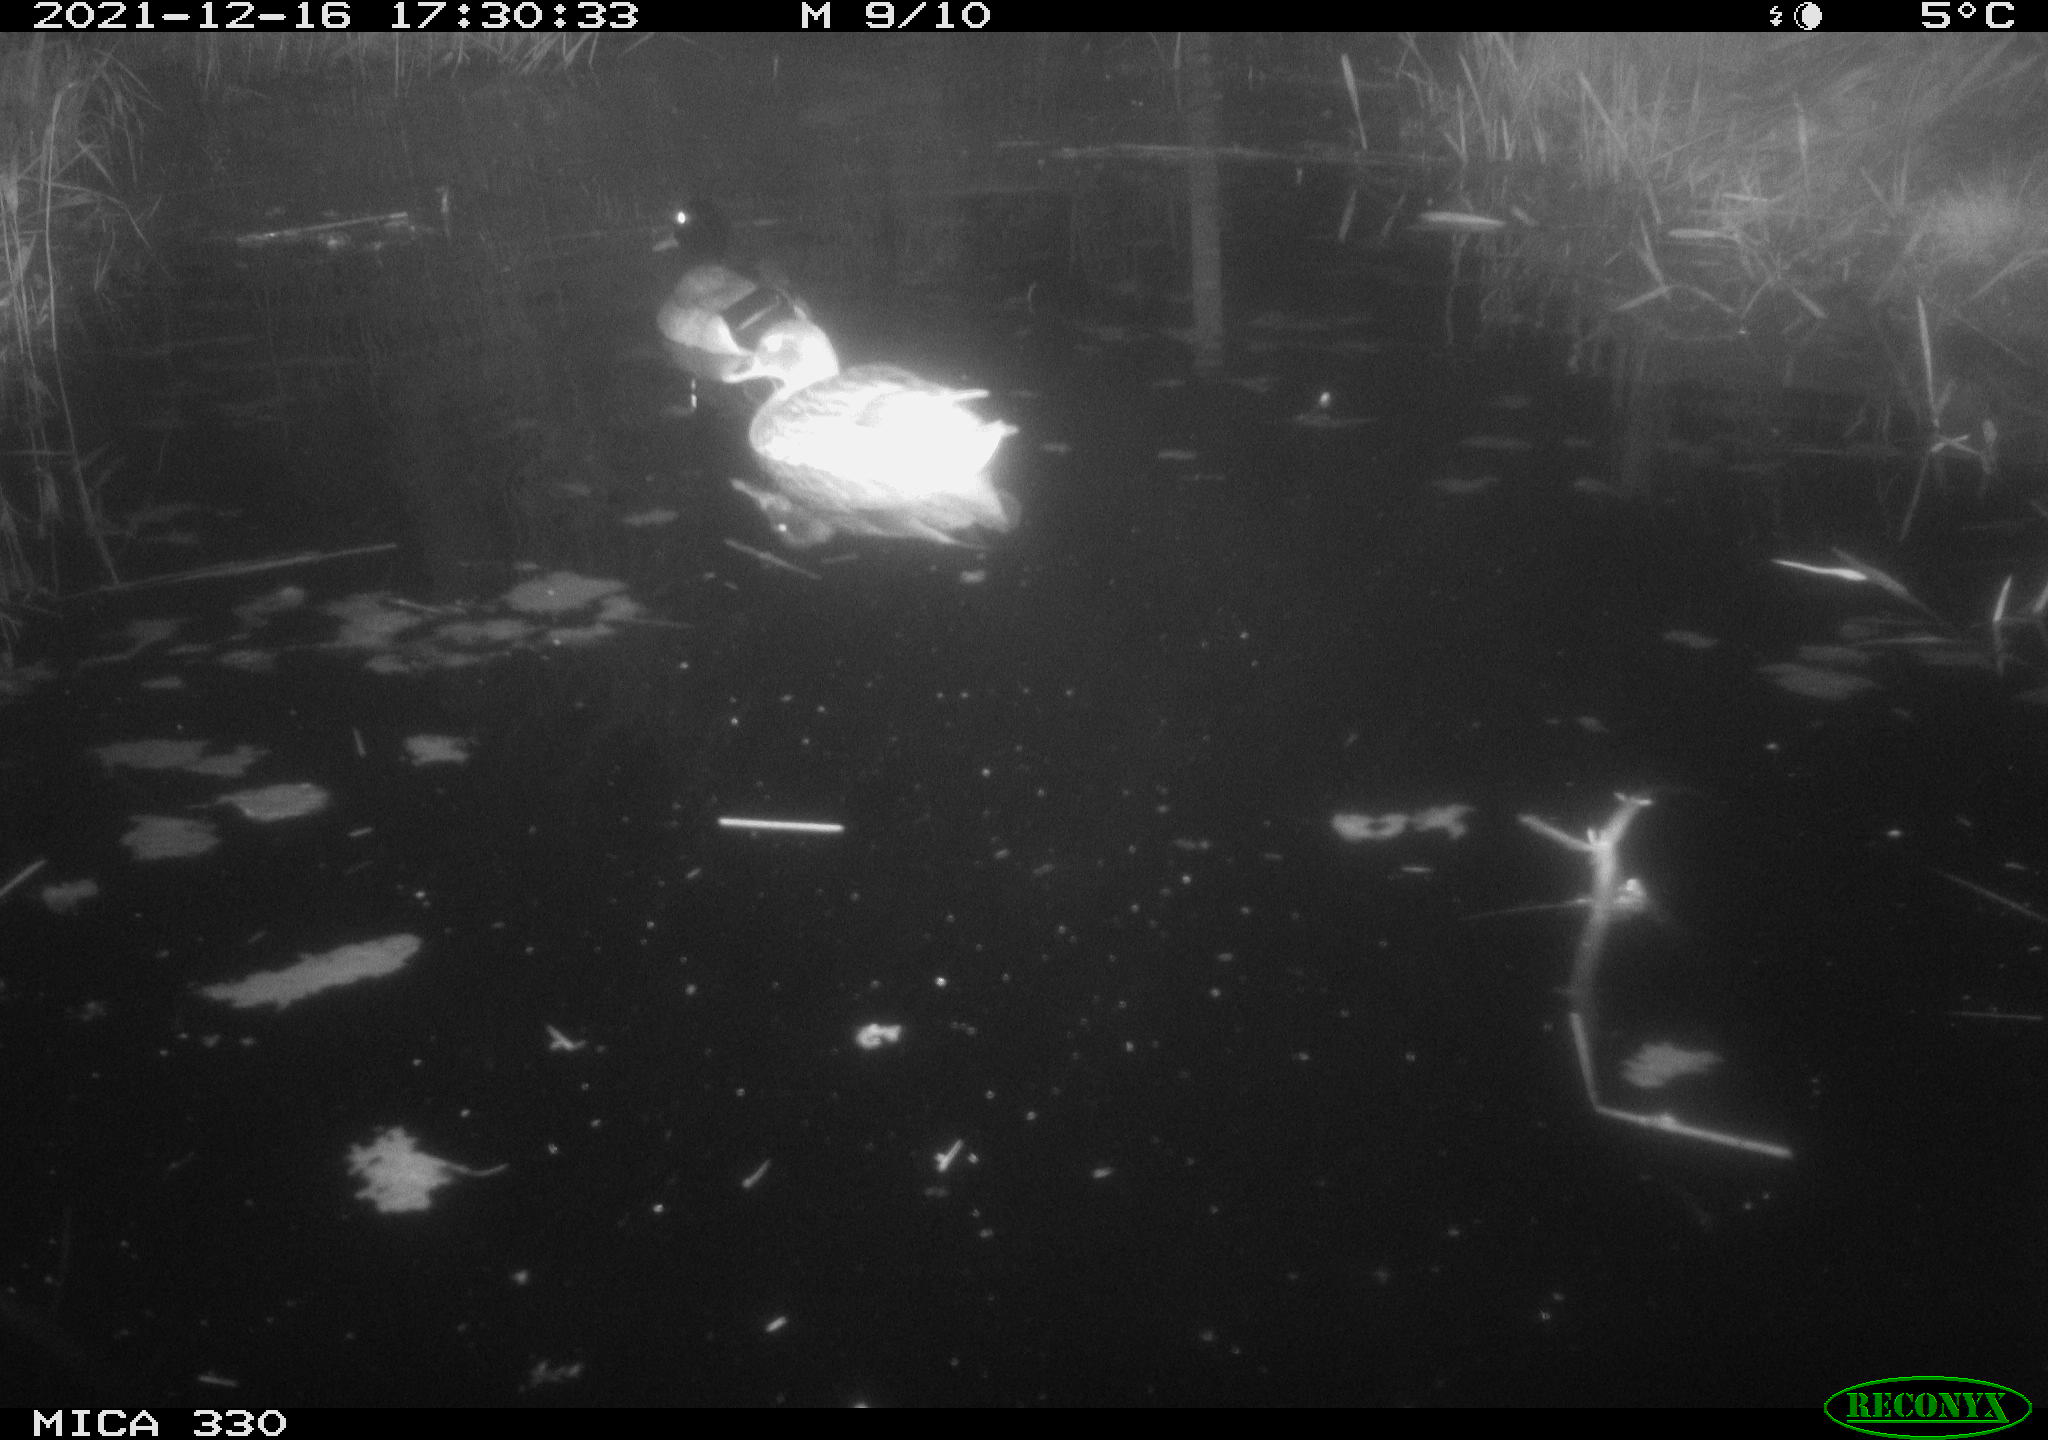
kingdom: Animalia
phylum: Chordata
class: Aves
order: Anseriformes
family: Anatidae
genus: Anas
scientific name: Anas platyrhynchos
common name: Mallard
